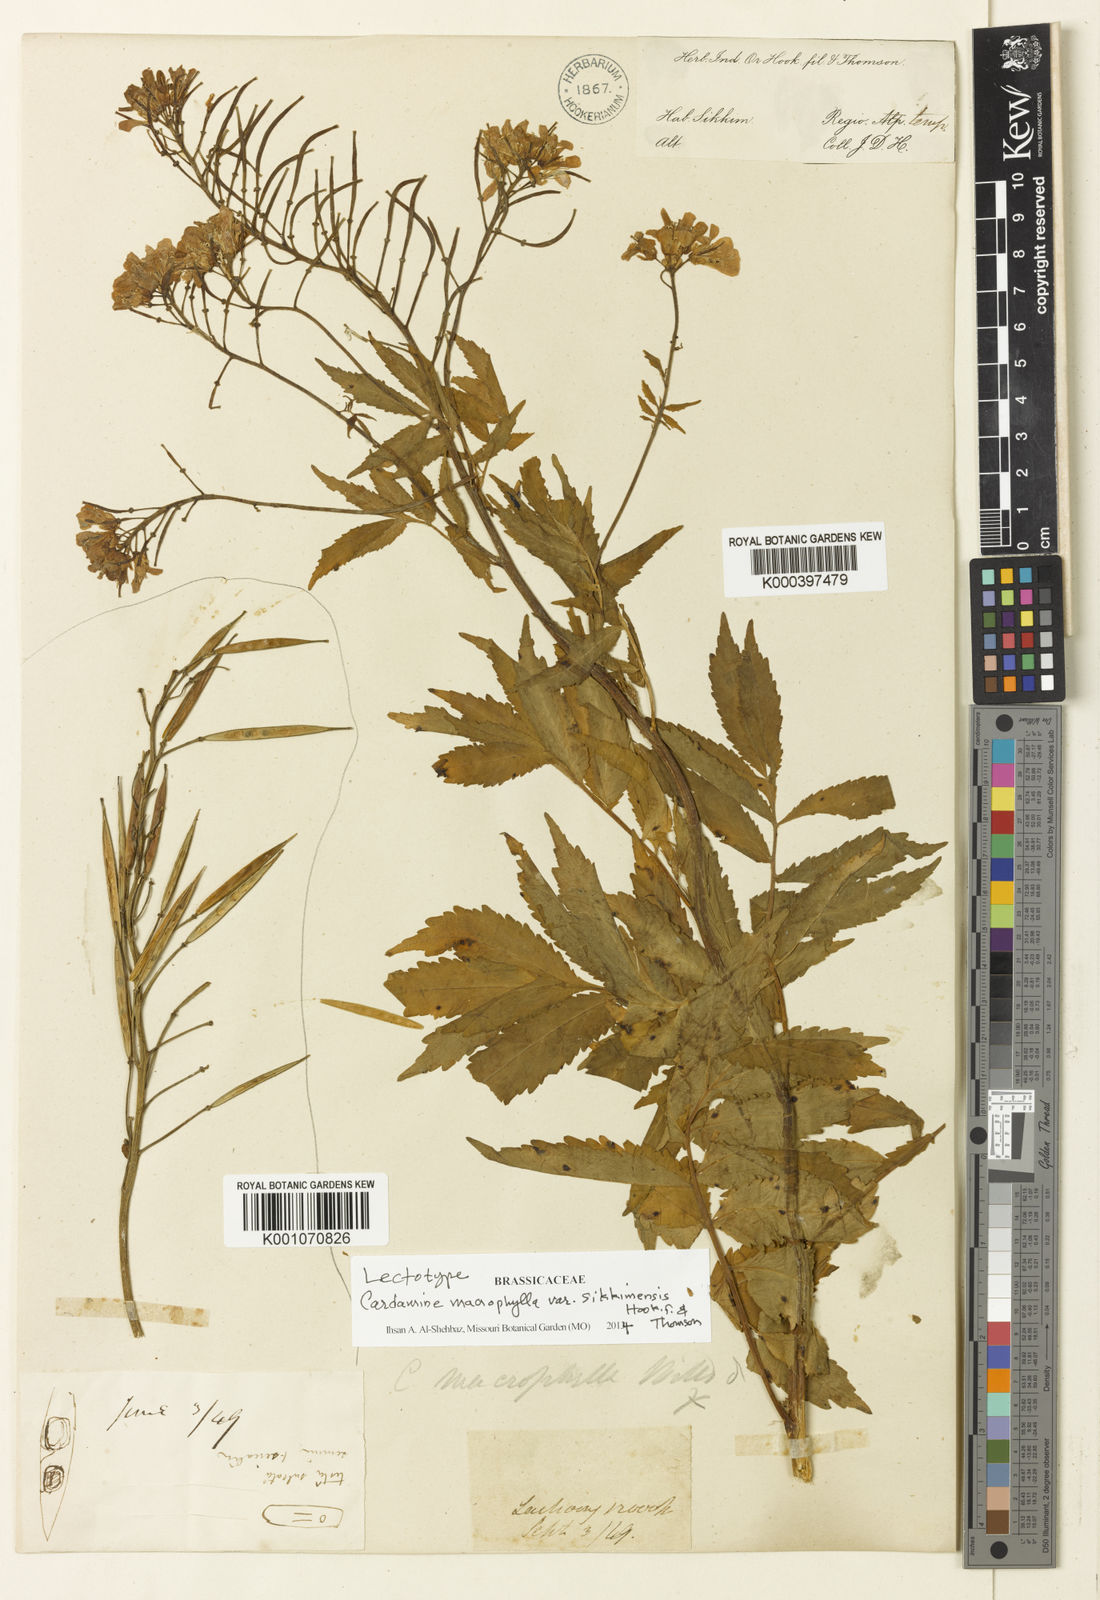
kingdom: Plantae
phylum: Tracheophyta
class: Magnoliopsida
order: Brassicales
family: Brassicaceae
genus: Cardamine
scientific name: Cardamine macrophylla
